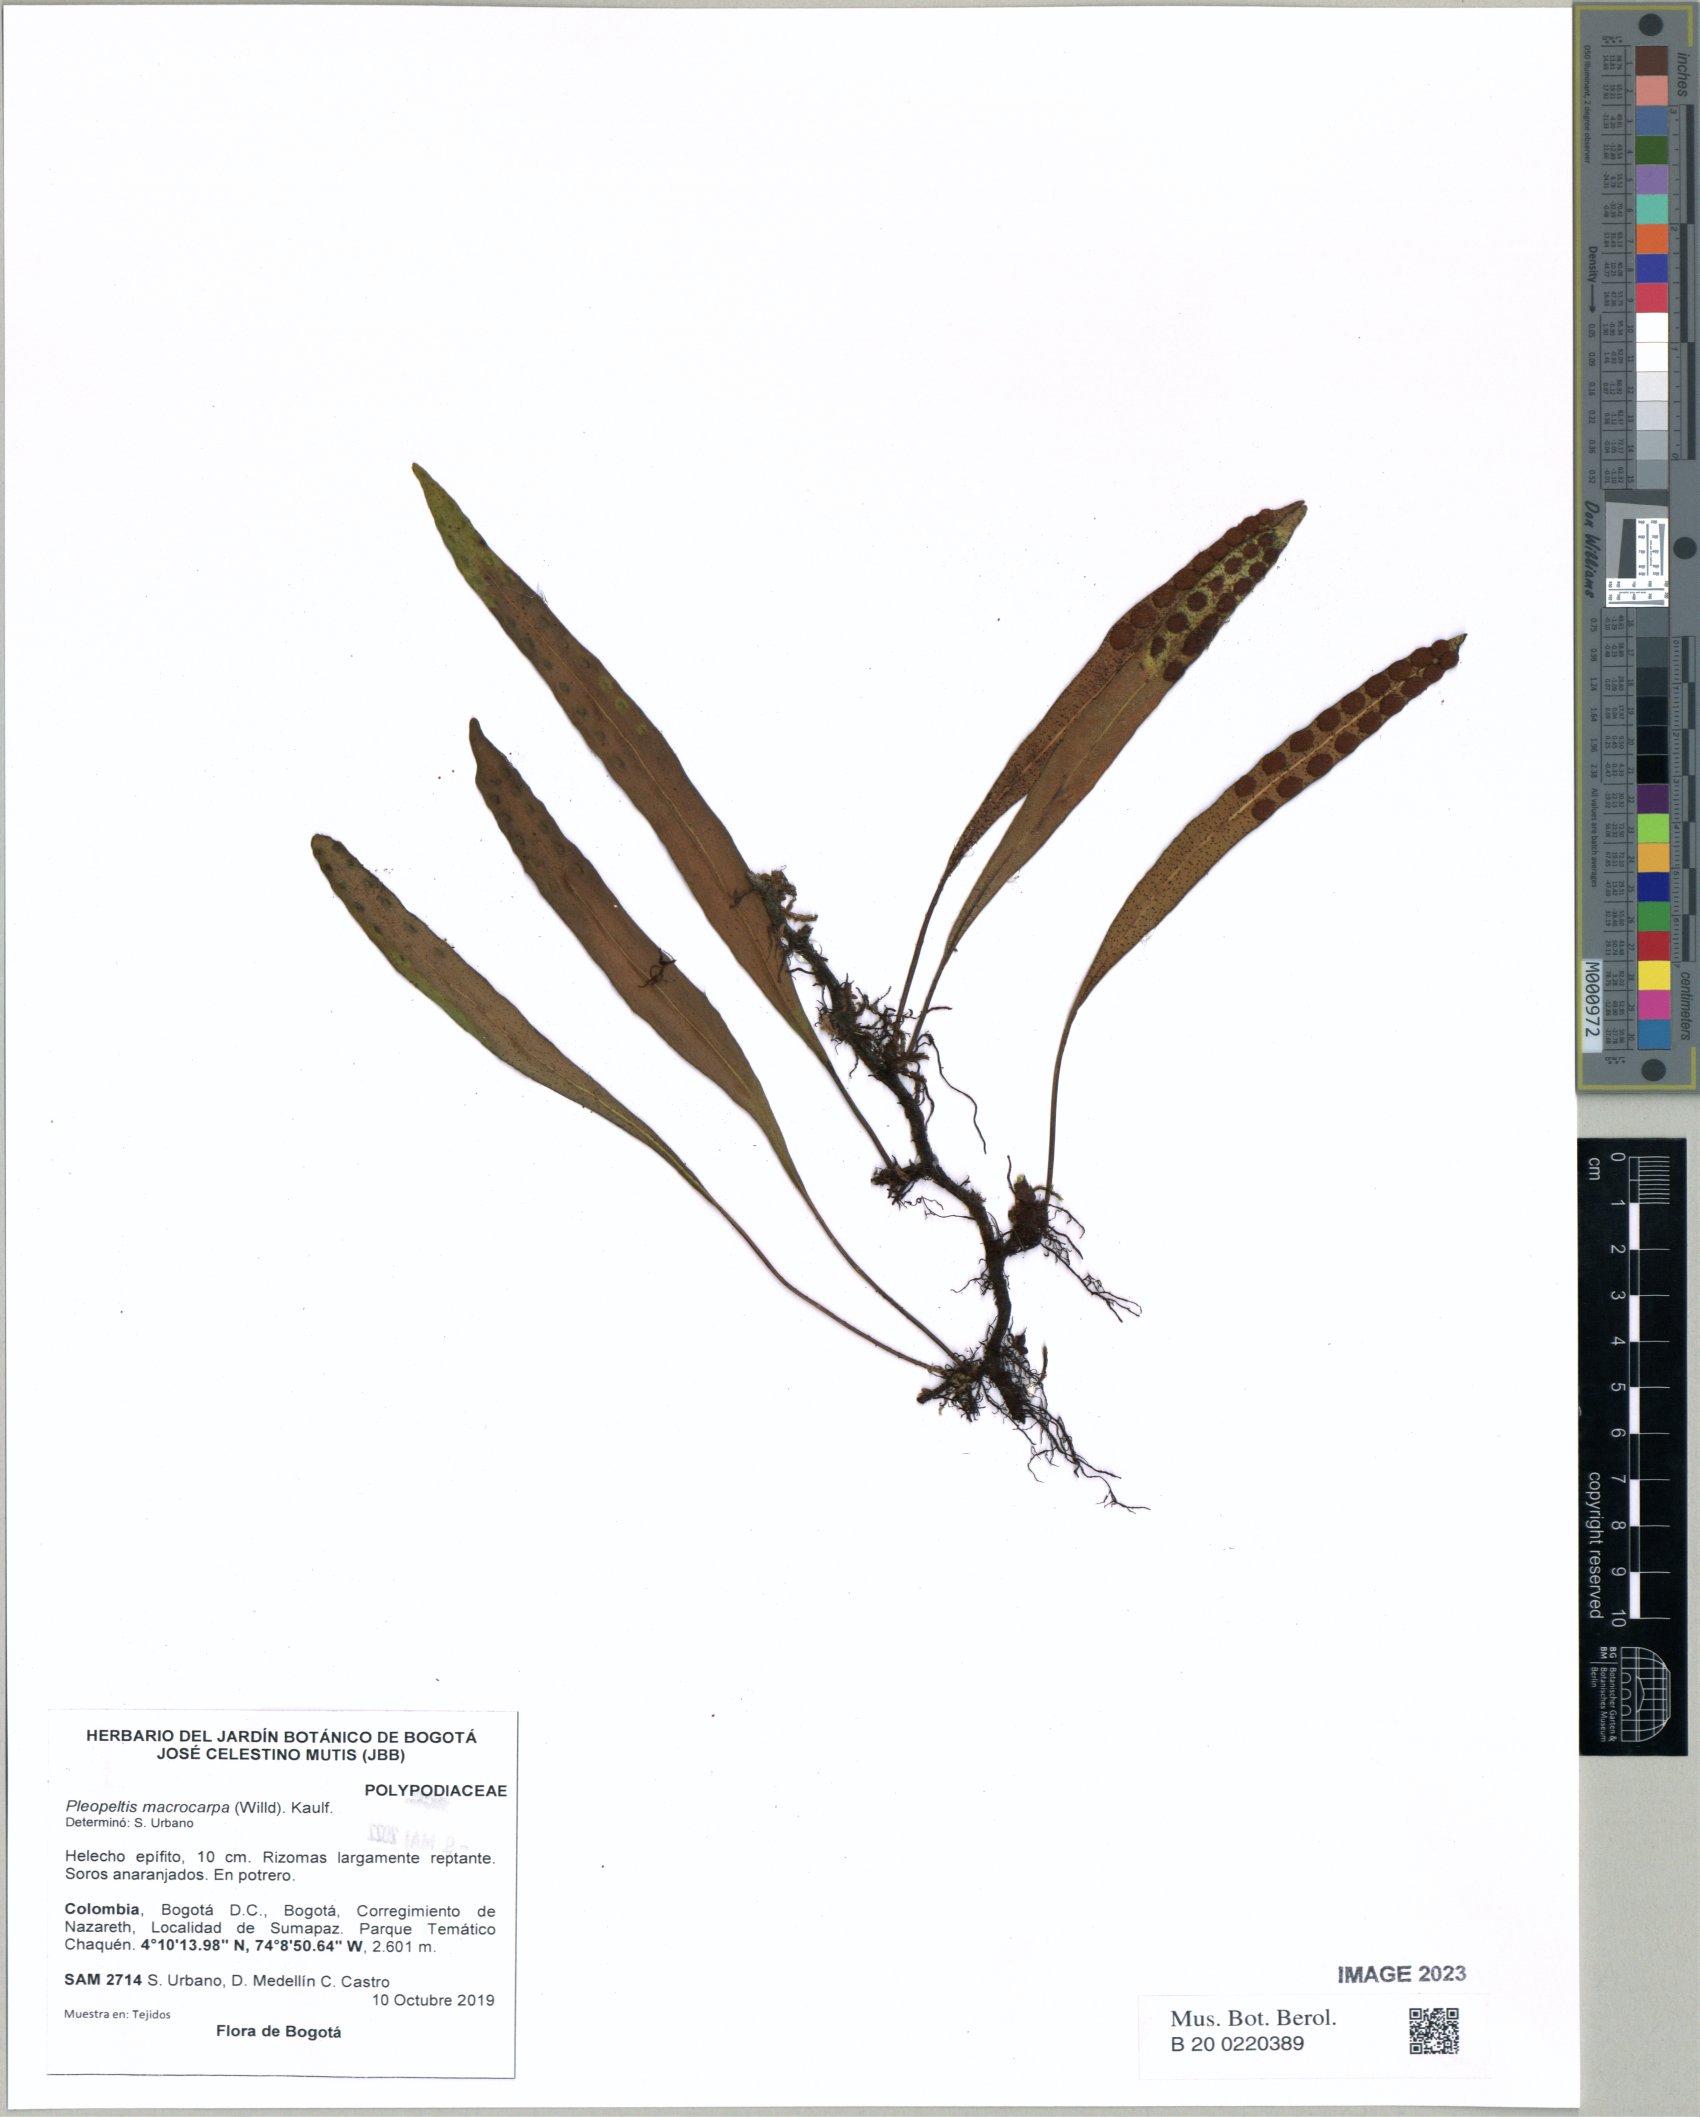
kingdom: Plantae
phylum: Tracheophyta
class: Polypodiopsida
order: Polypodiales
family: Polypodiaceae
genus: Pleopeltis
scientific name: Pleopeltis macrocarpa
